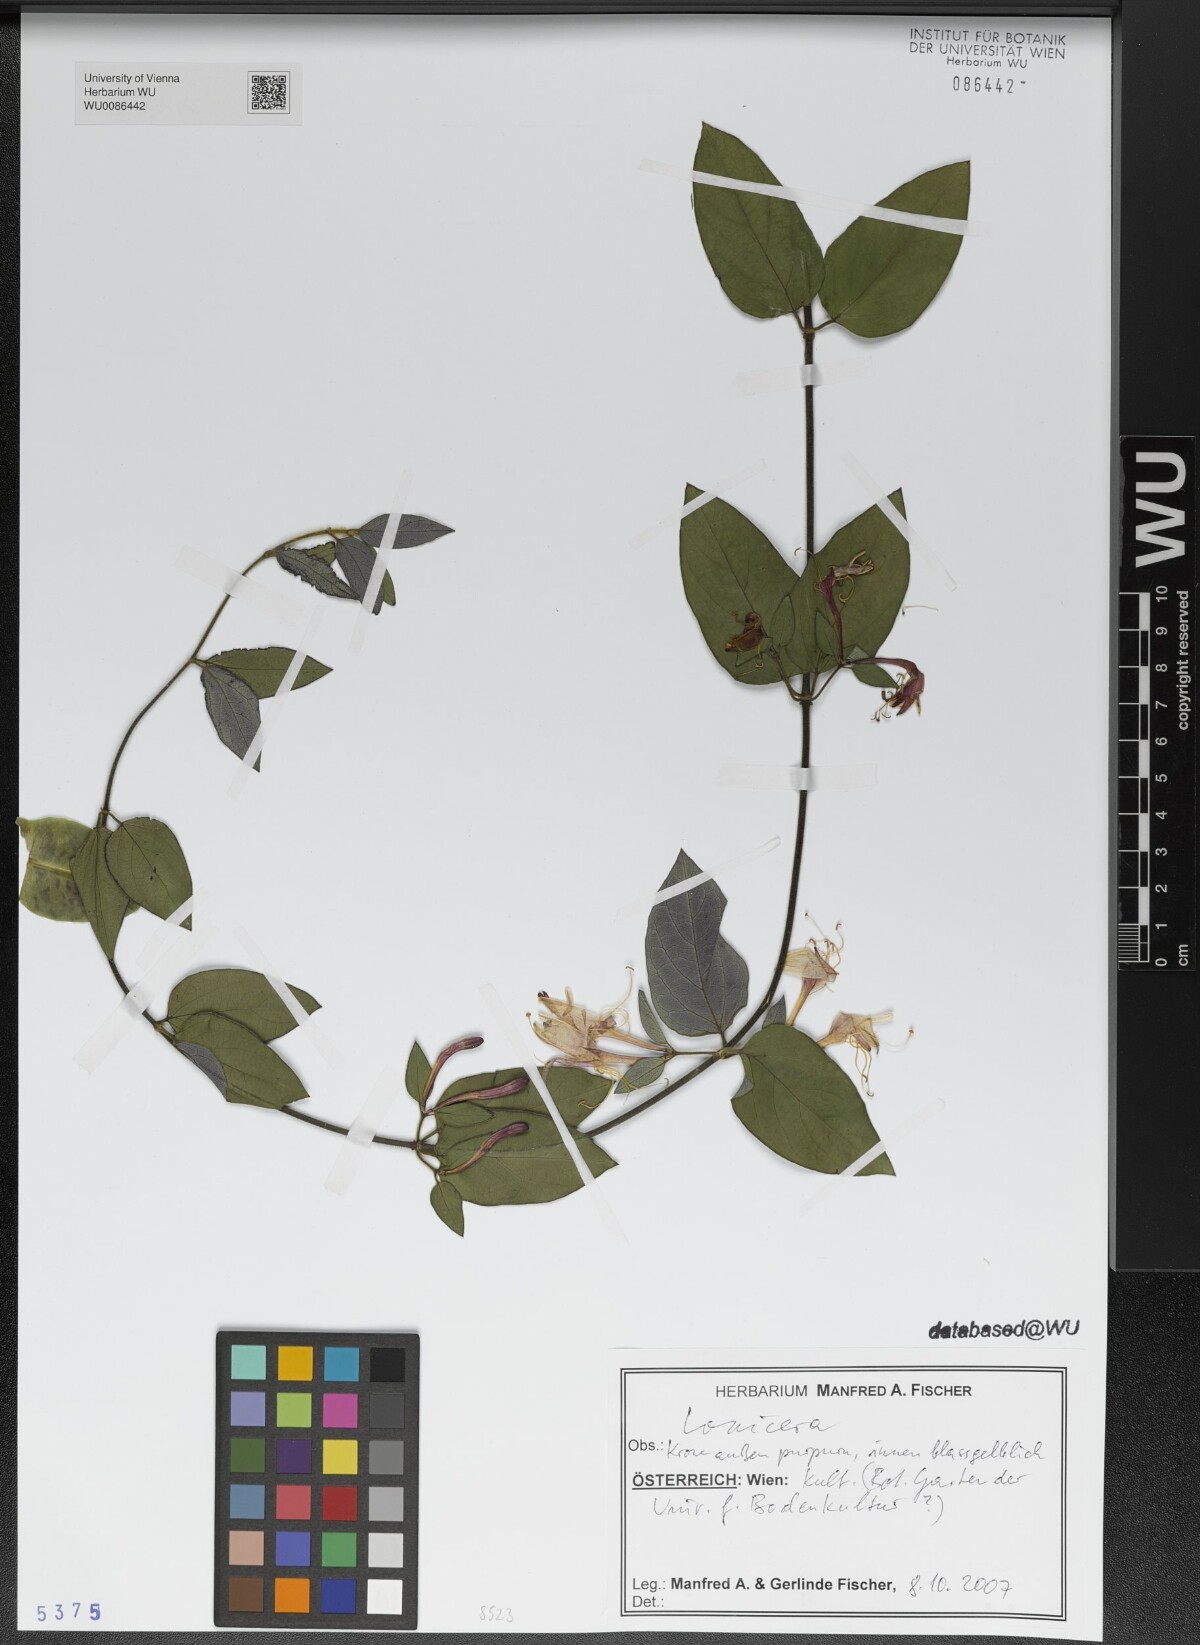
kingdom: Plantae
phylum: Tracheophyta
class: Magnoliopsida
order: Dipsacales
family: Caprifoliaceae
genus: Lonicera
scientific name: Lonicera
